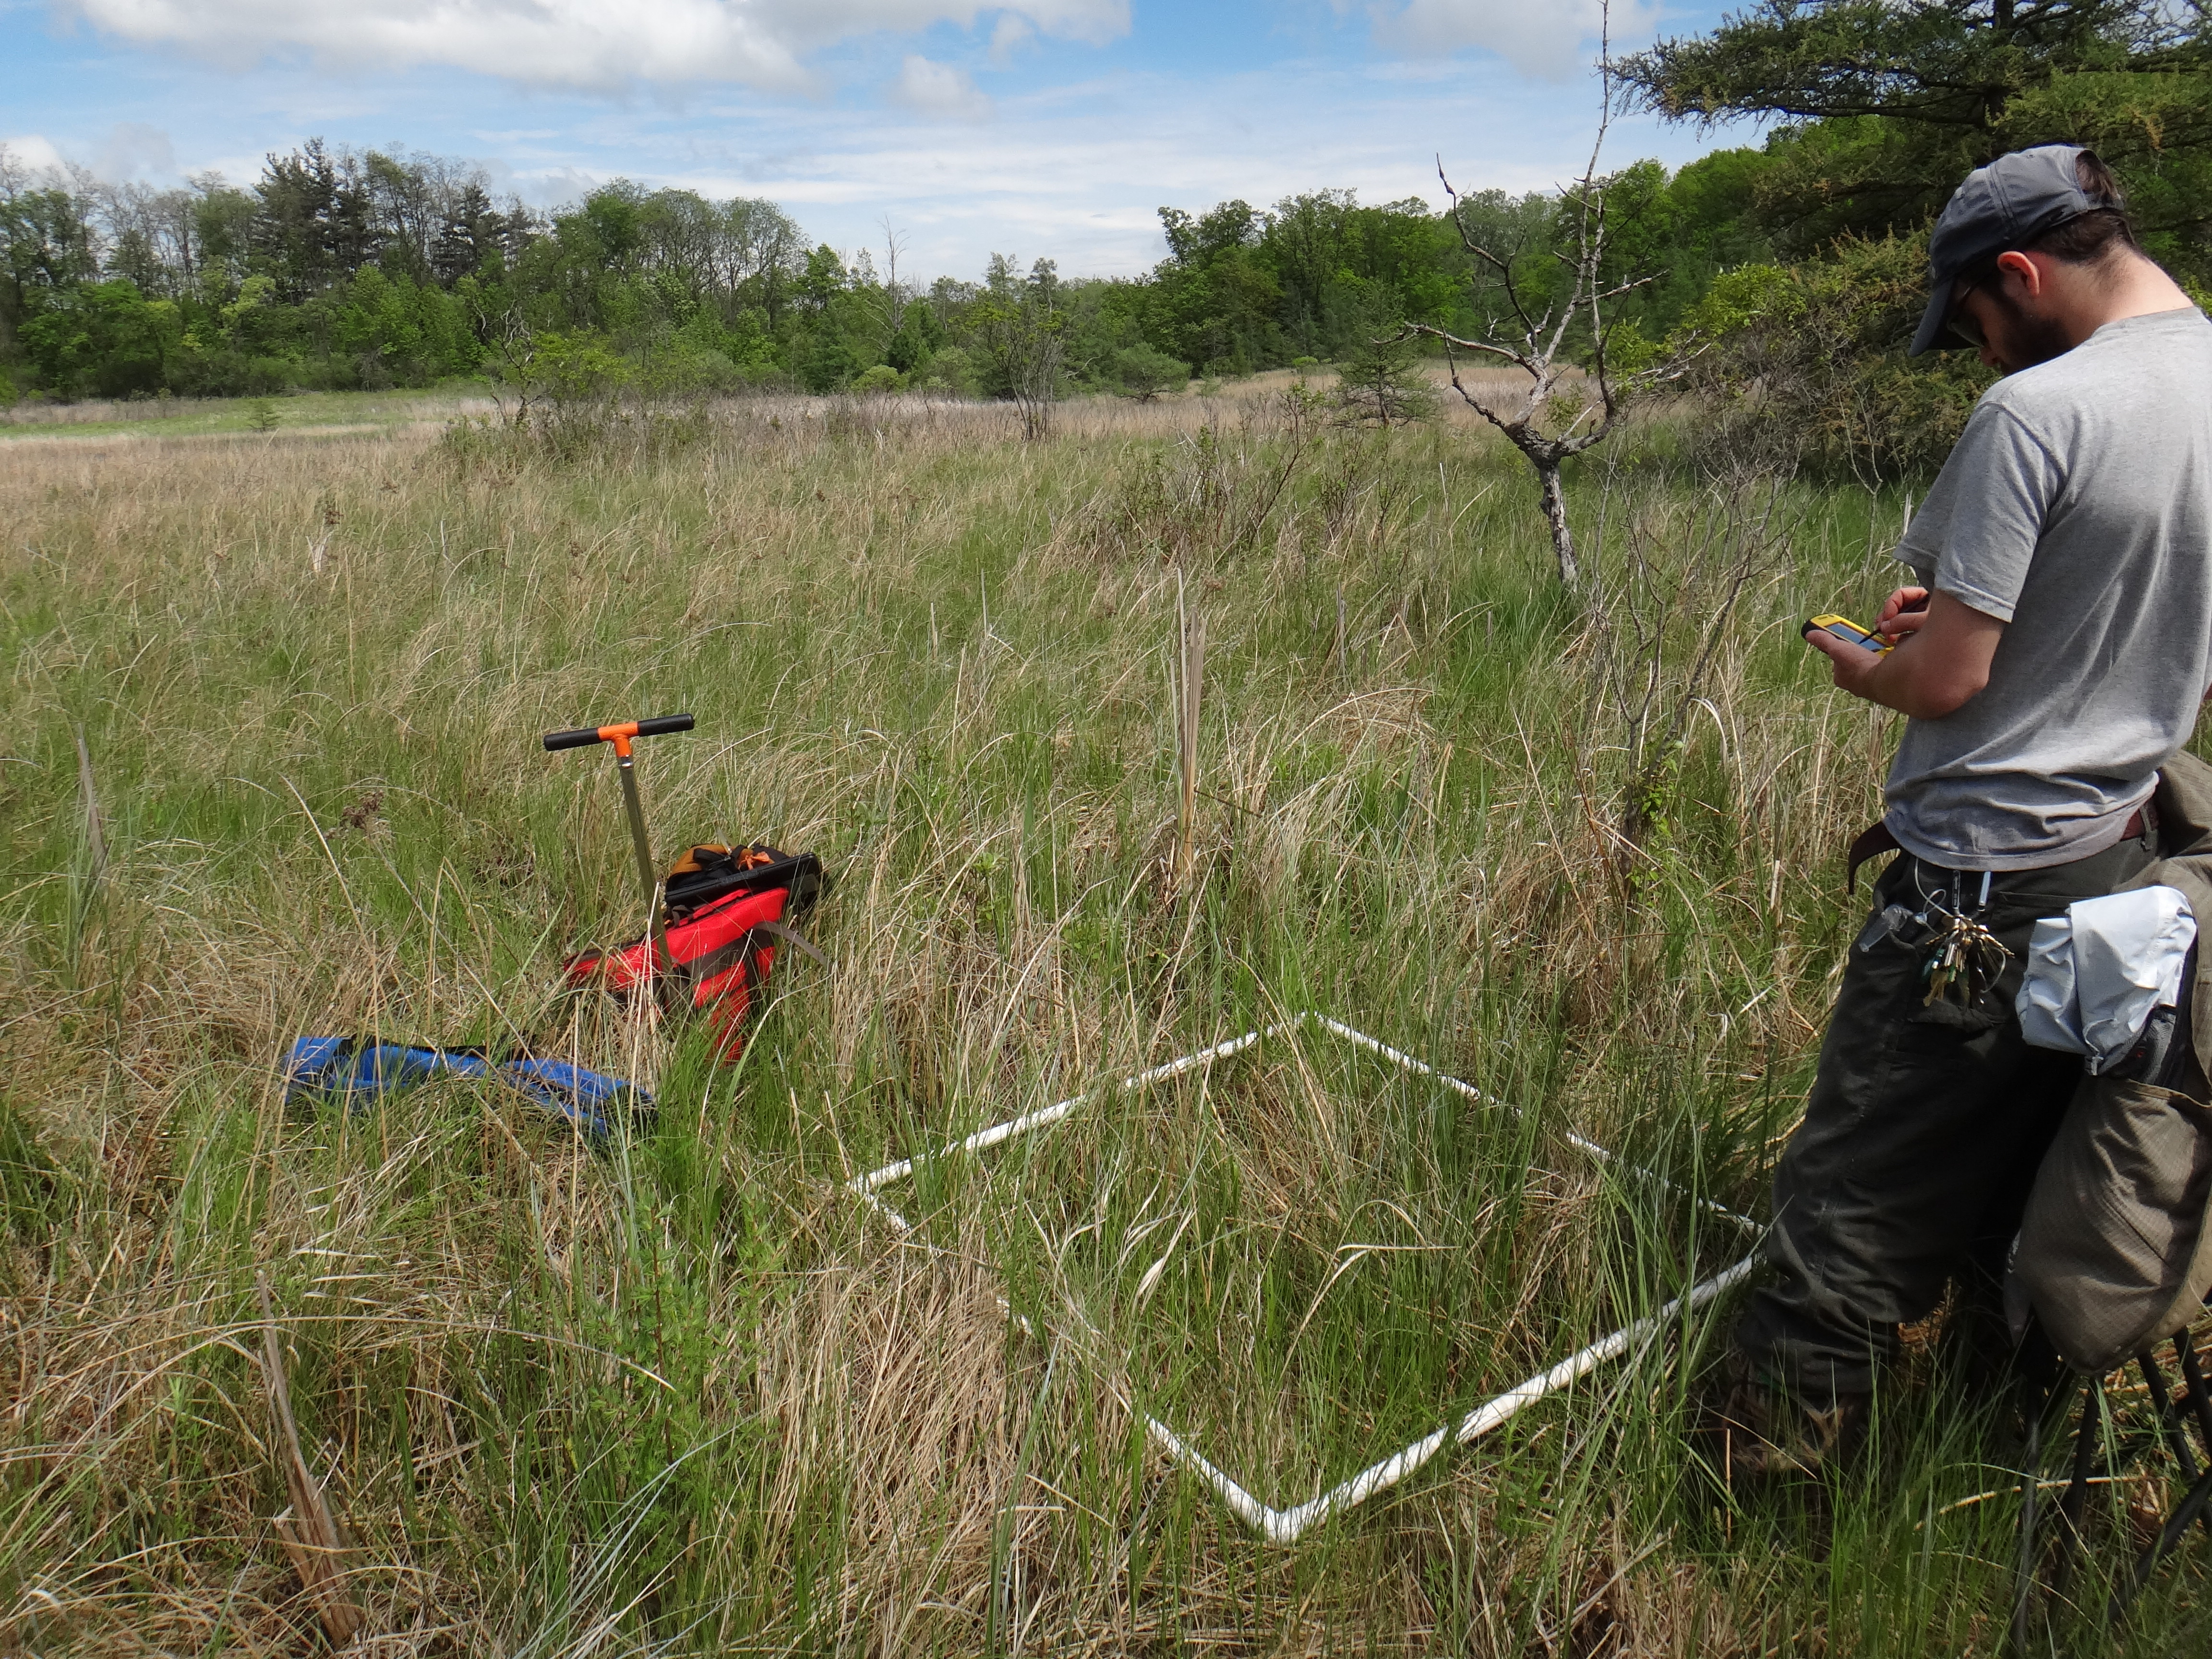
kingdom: Plantae
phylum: Tracheophyta
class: Magnoliopsida
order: Asterales
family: Asteraceae
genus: Symphyotrichum
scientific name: Symphyotrichum puniceum
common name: Bog aster
